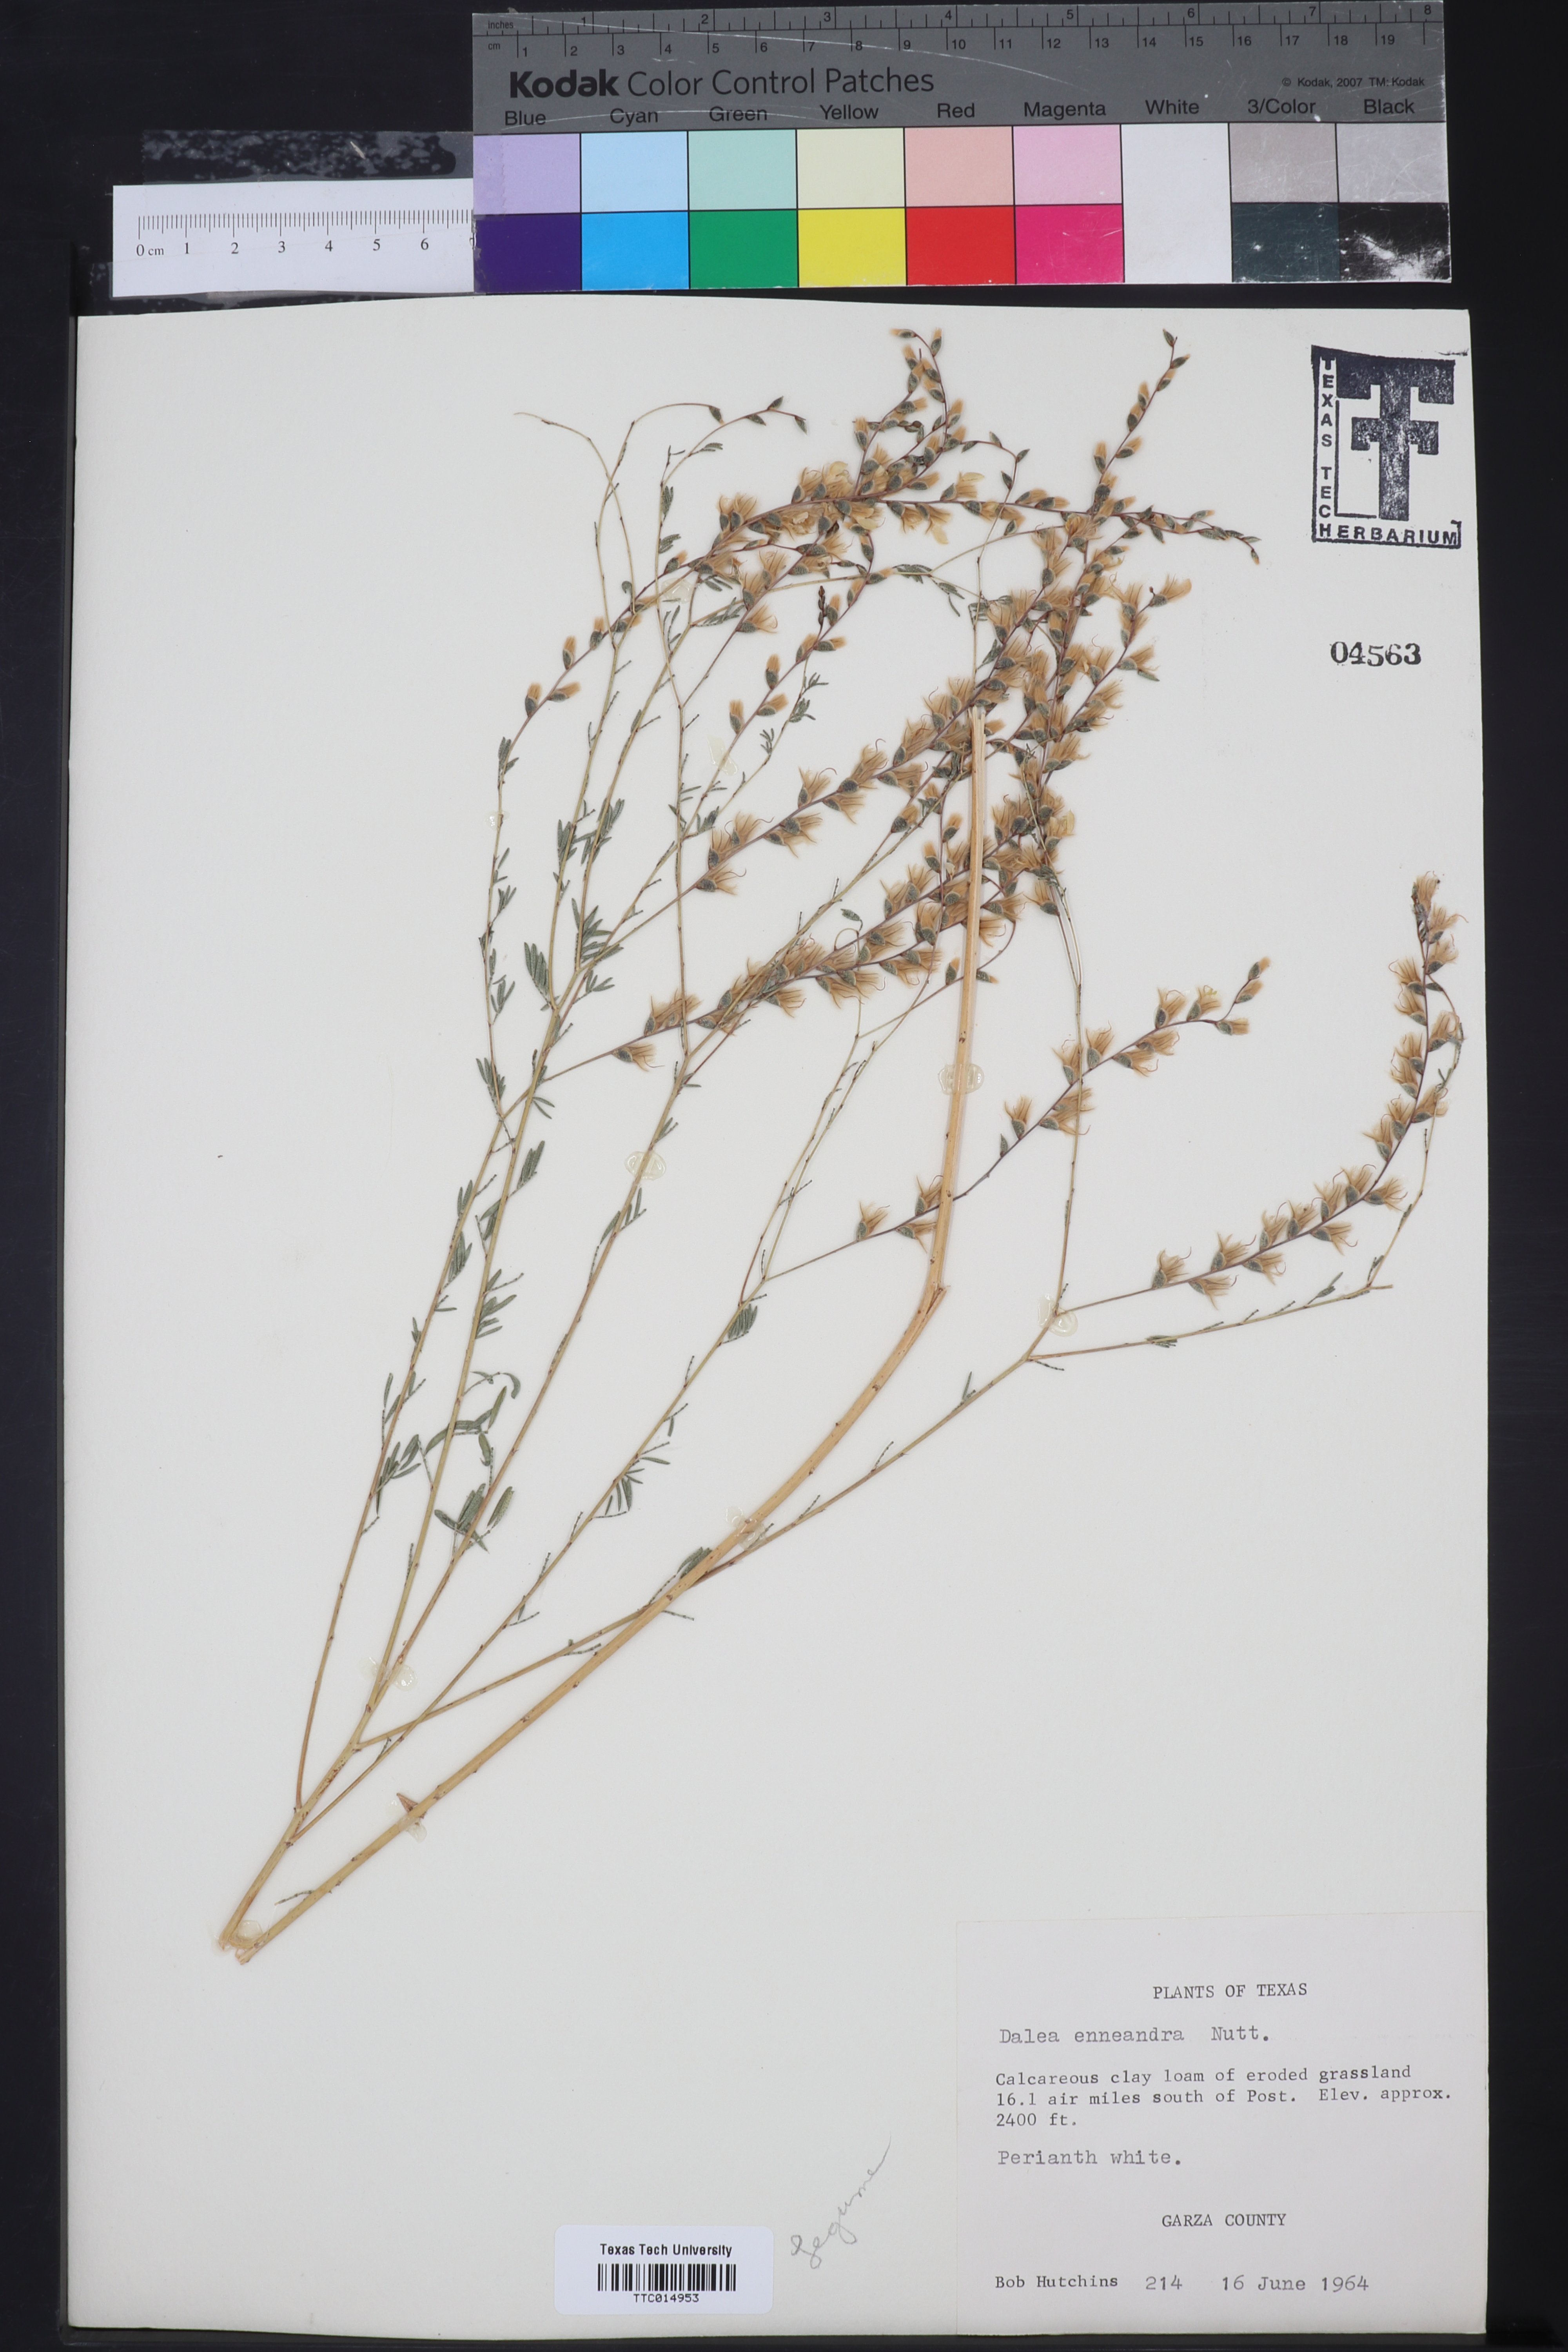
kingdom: Plantae
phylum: Tracheophyta
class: Magnoliopsida
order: Fabales
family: Fabaceae
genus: Dalea
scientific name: Dalea enneandra
